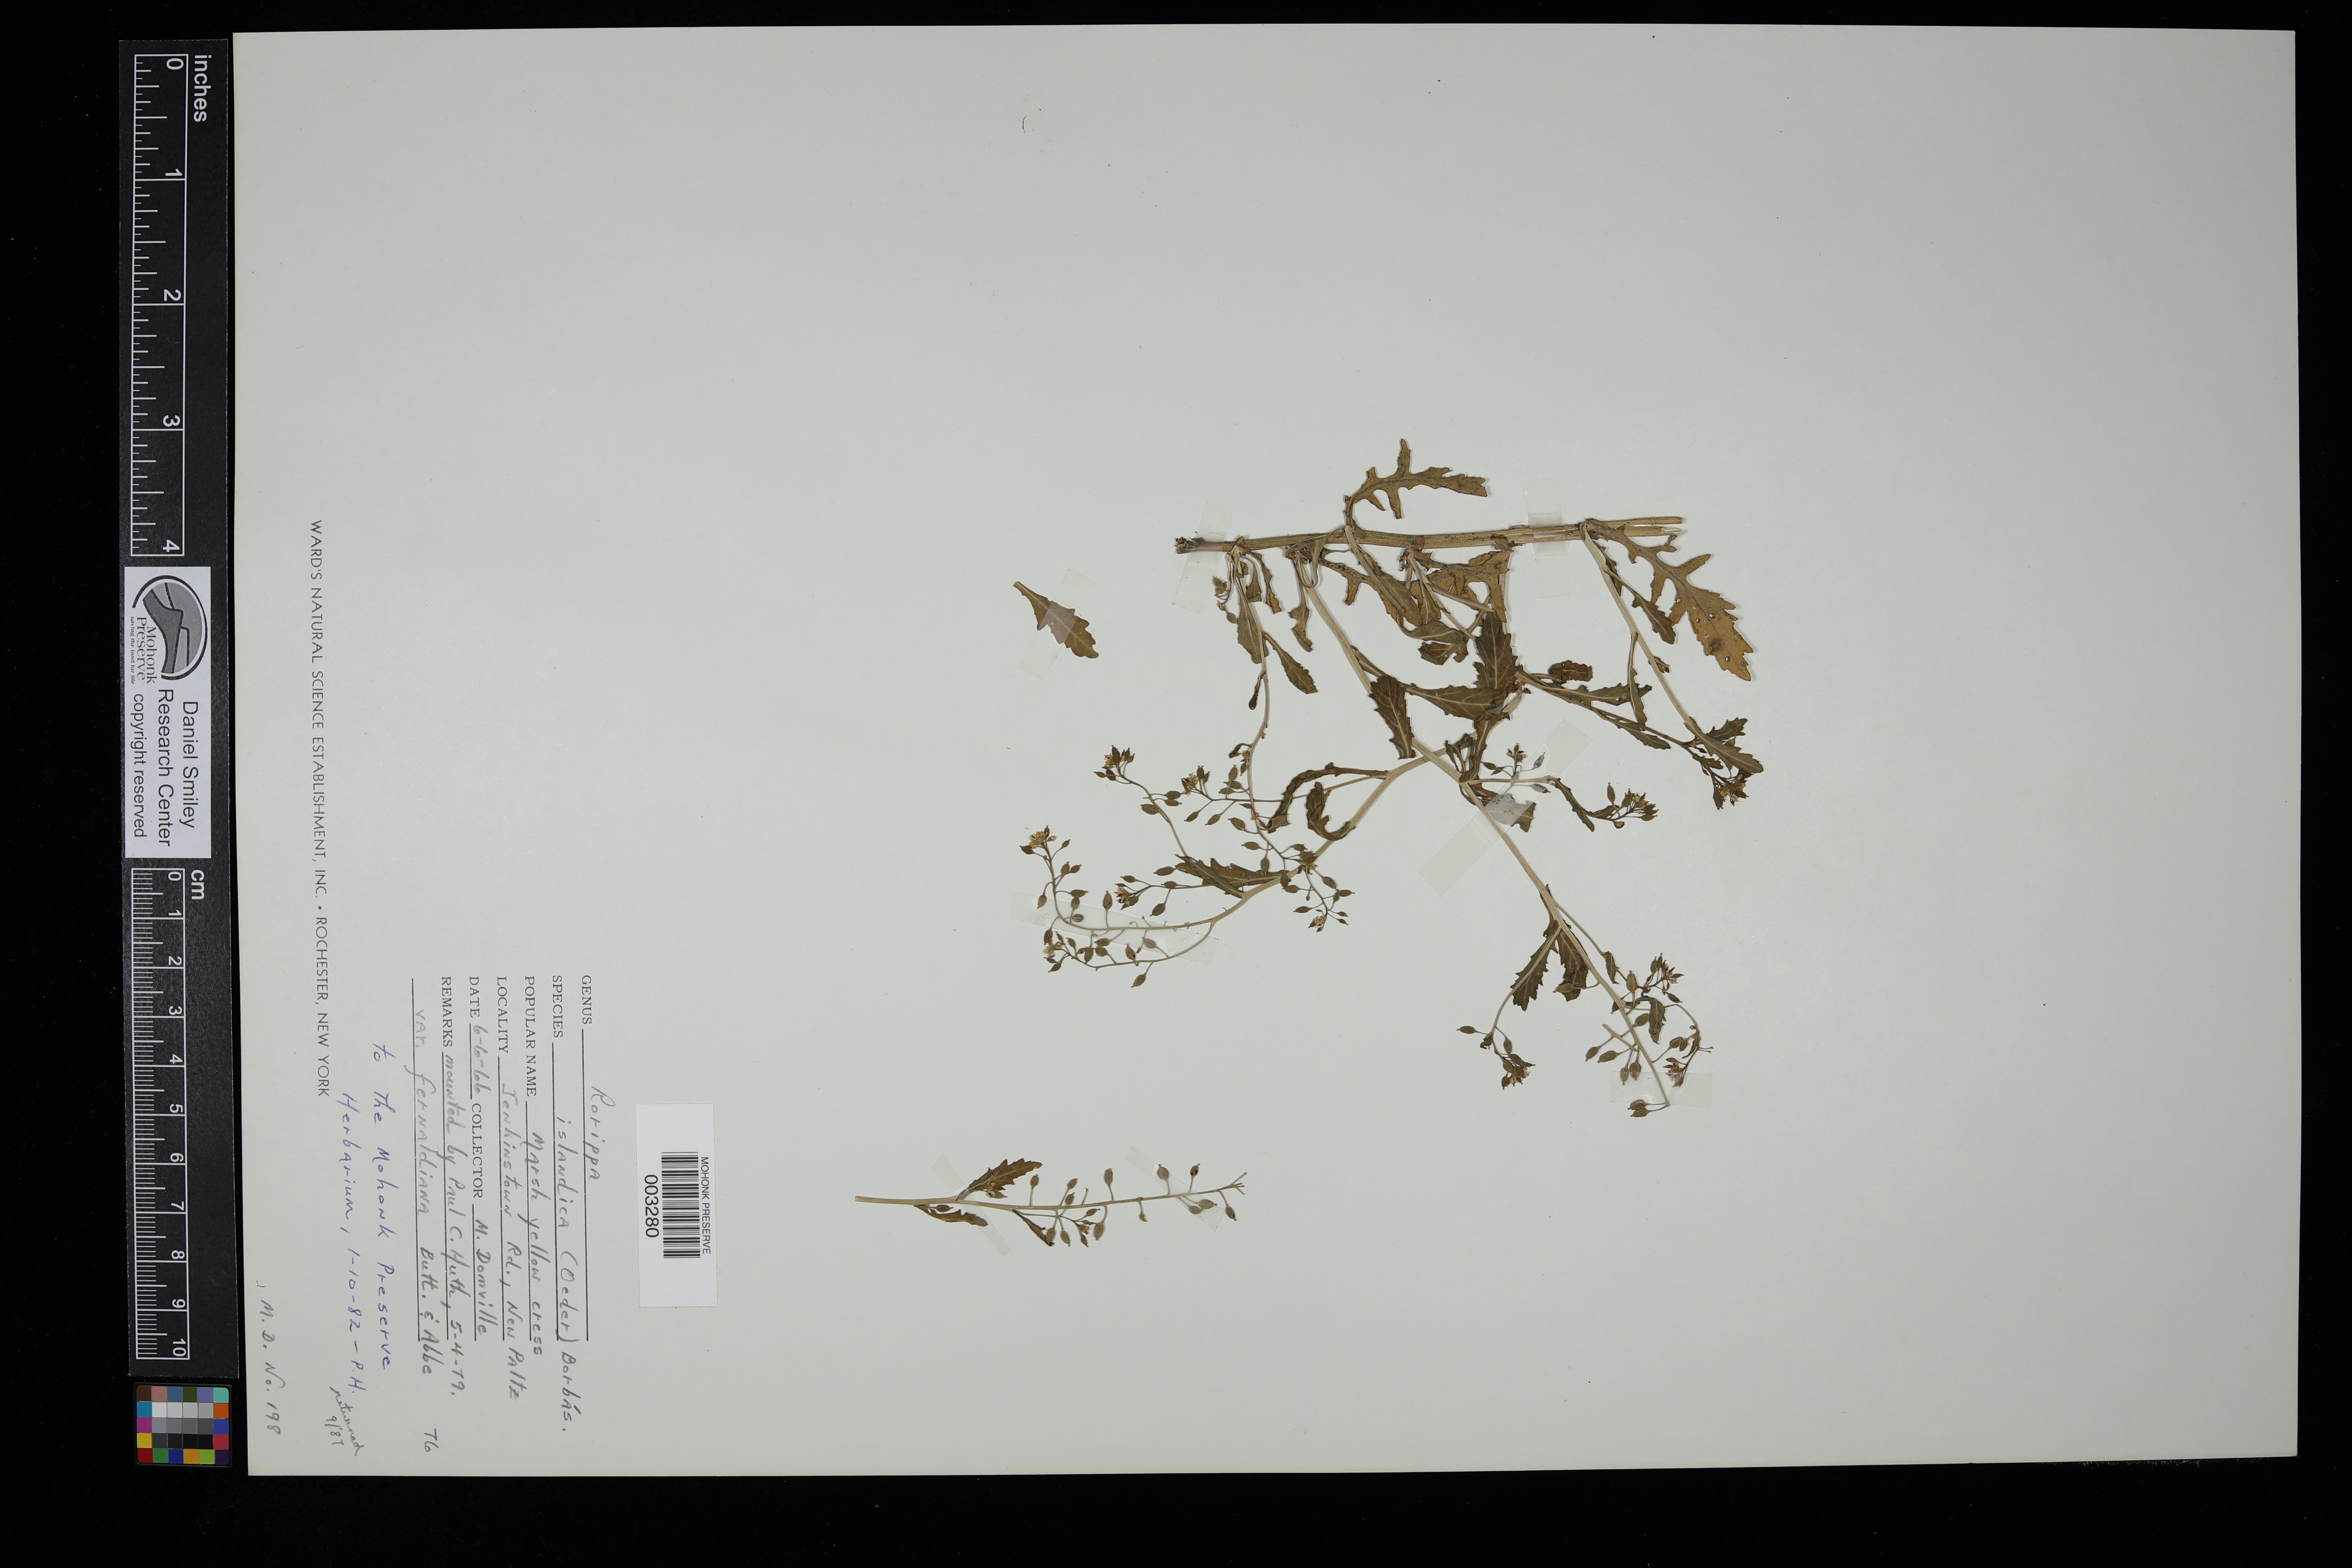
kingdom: Plantae
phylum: Tracheophyta
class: Magnoliopsida
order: Brassicales
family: Brassicaceae
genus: Rorippa
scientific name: Rorippa islandica
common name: Marsh cress
